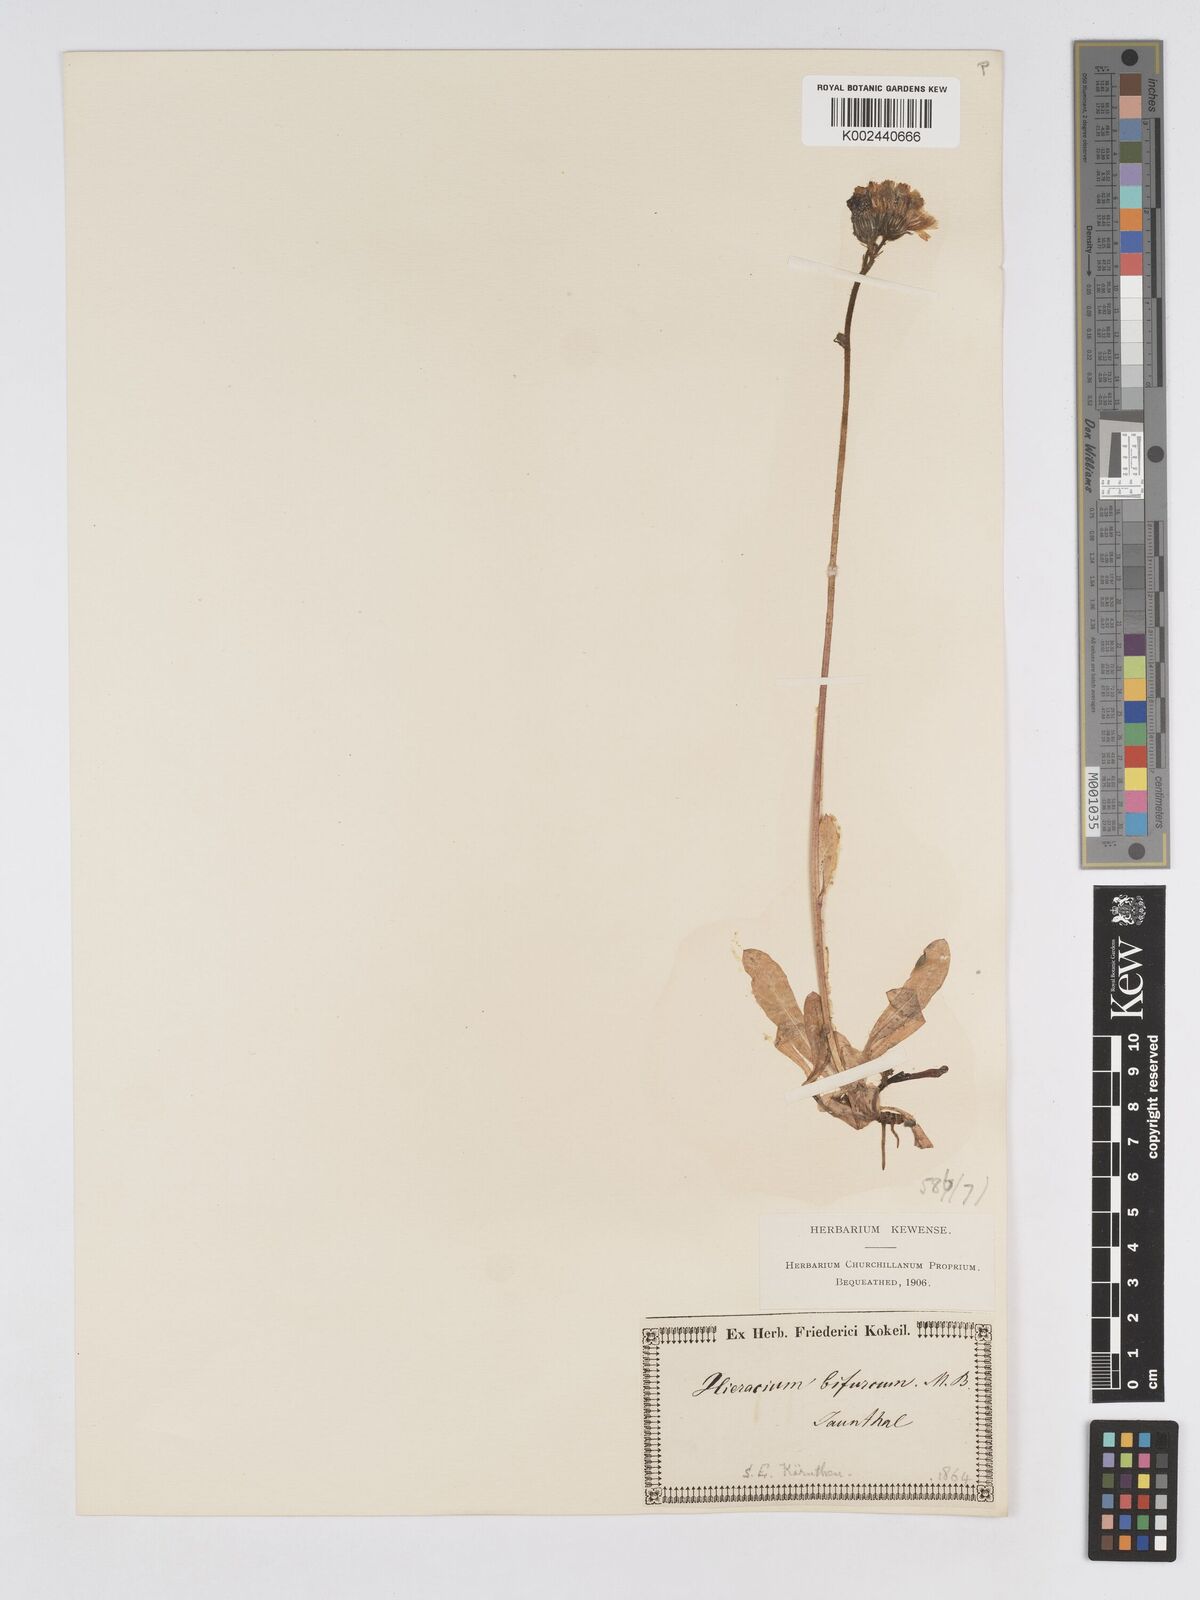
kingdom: Plantae
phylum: Tracheophyta
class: Magnoliopsida
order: Asterales
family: Asteraceae
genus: Pilosella
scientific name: Pilosella floribunda
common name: Glaucous hawkweed
